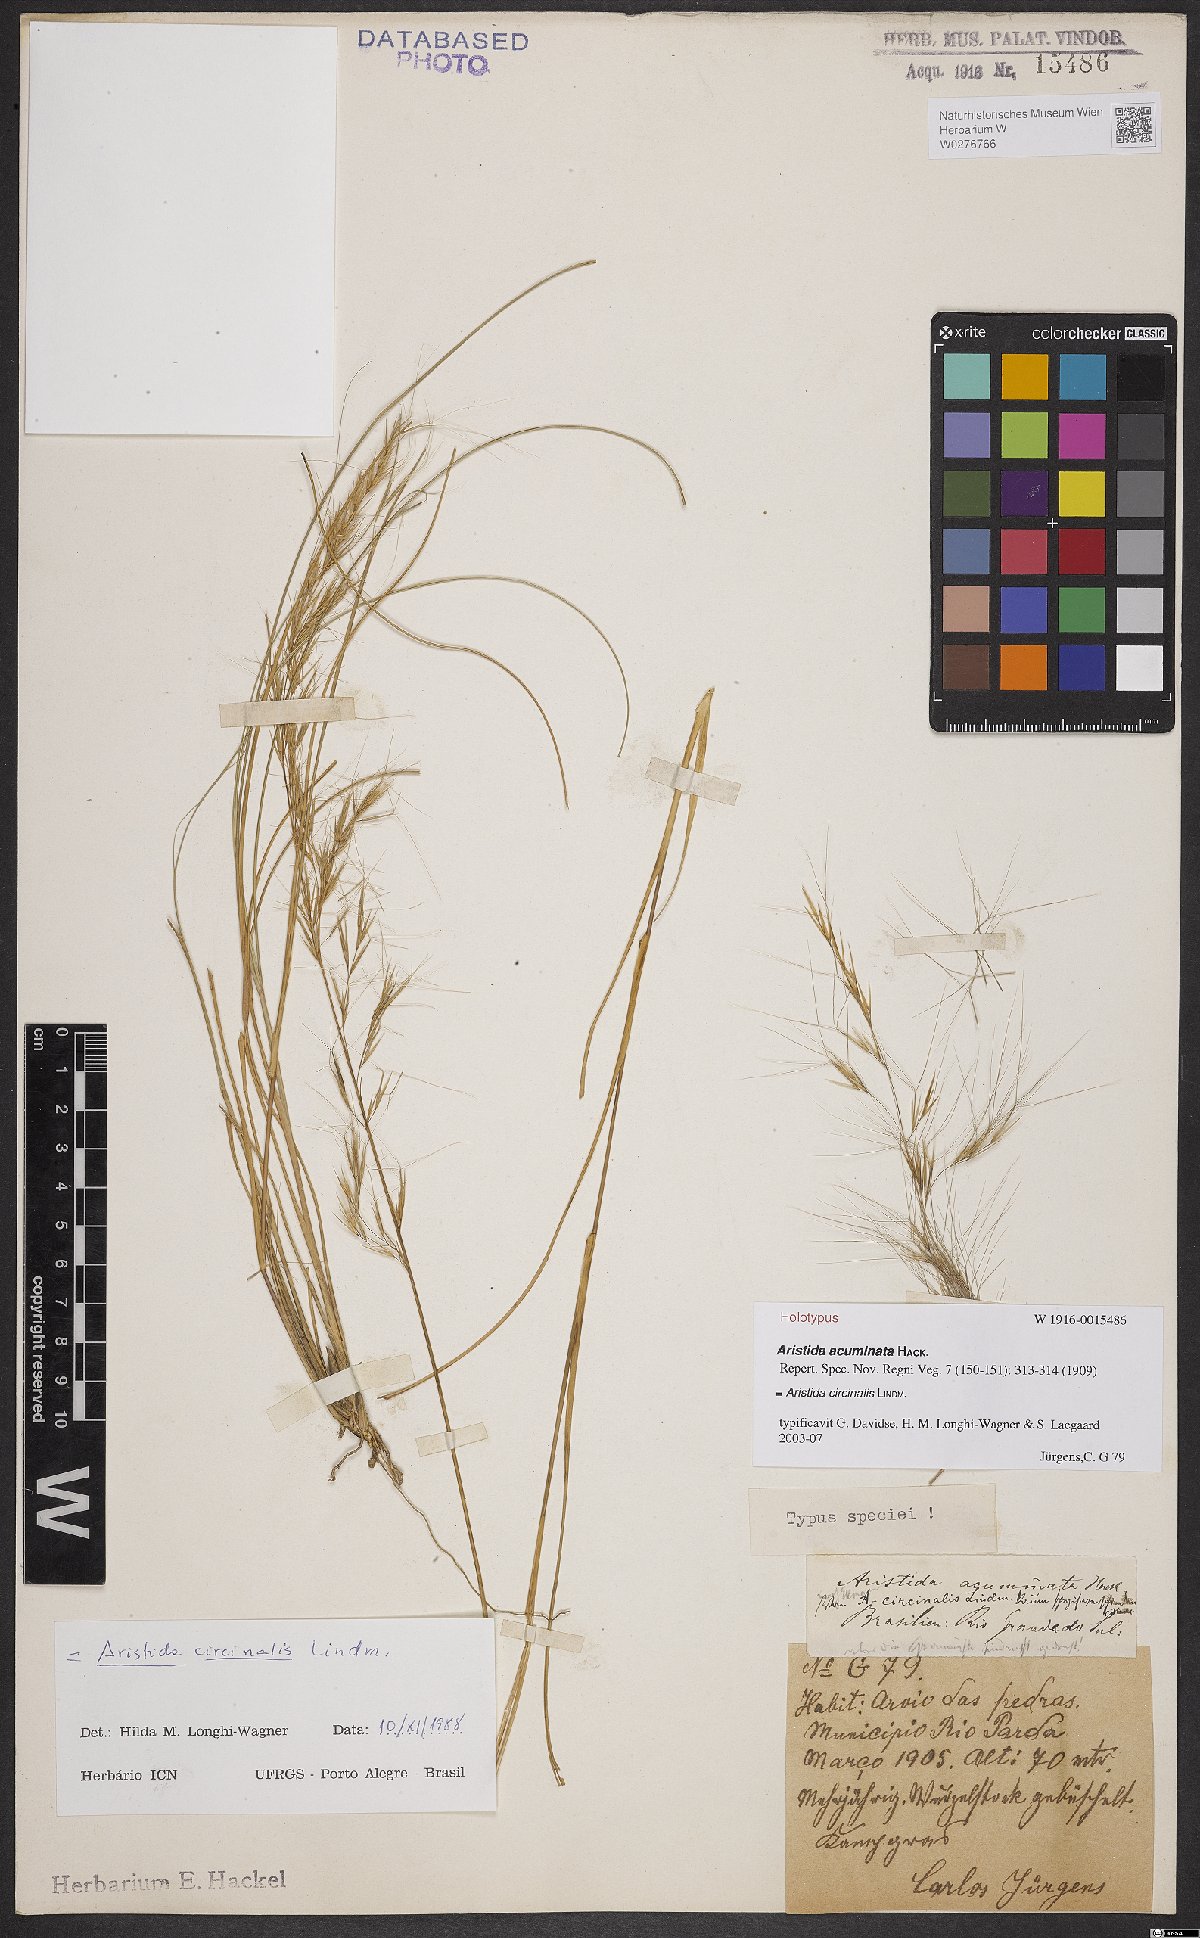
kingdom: Plantae
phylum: Tracheophyta
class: Liliopsida
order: Poales
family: Poaceae
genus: Aristida
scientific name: Aristida circinalis
